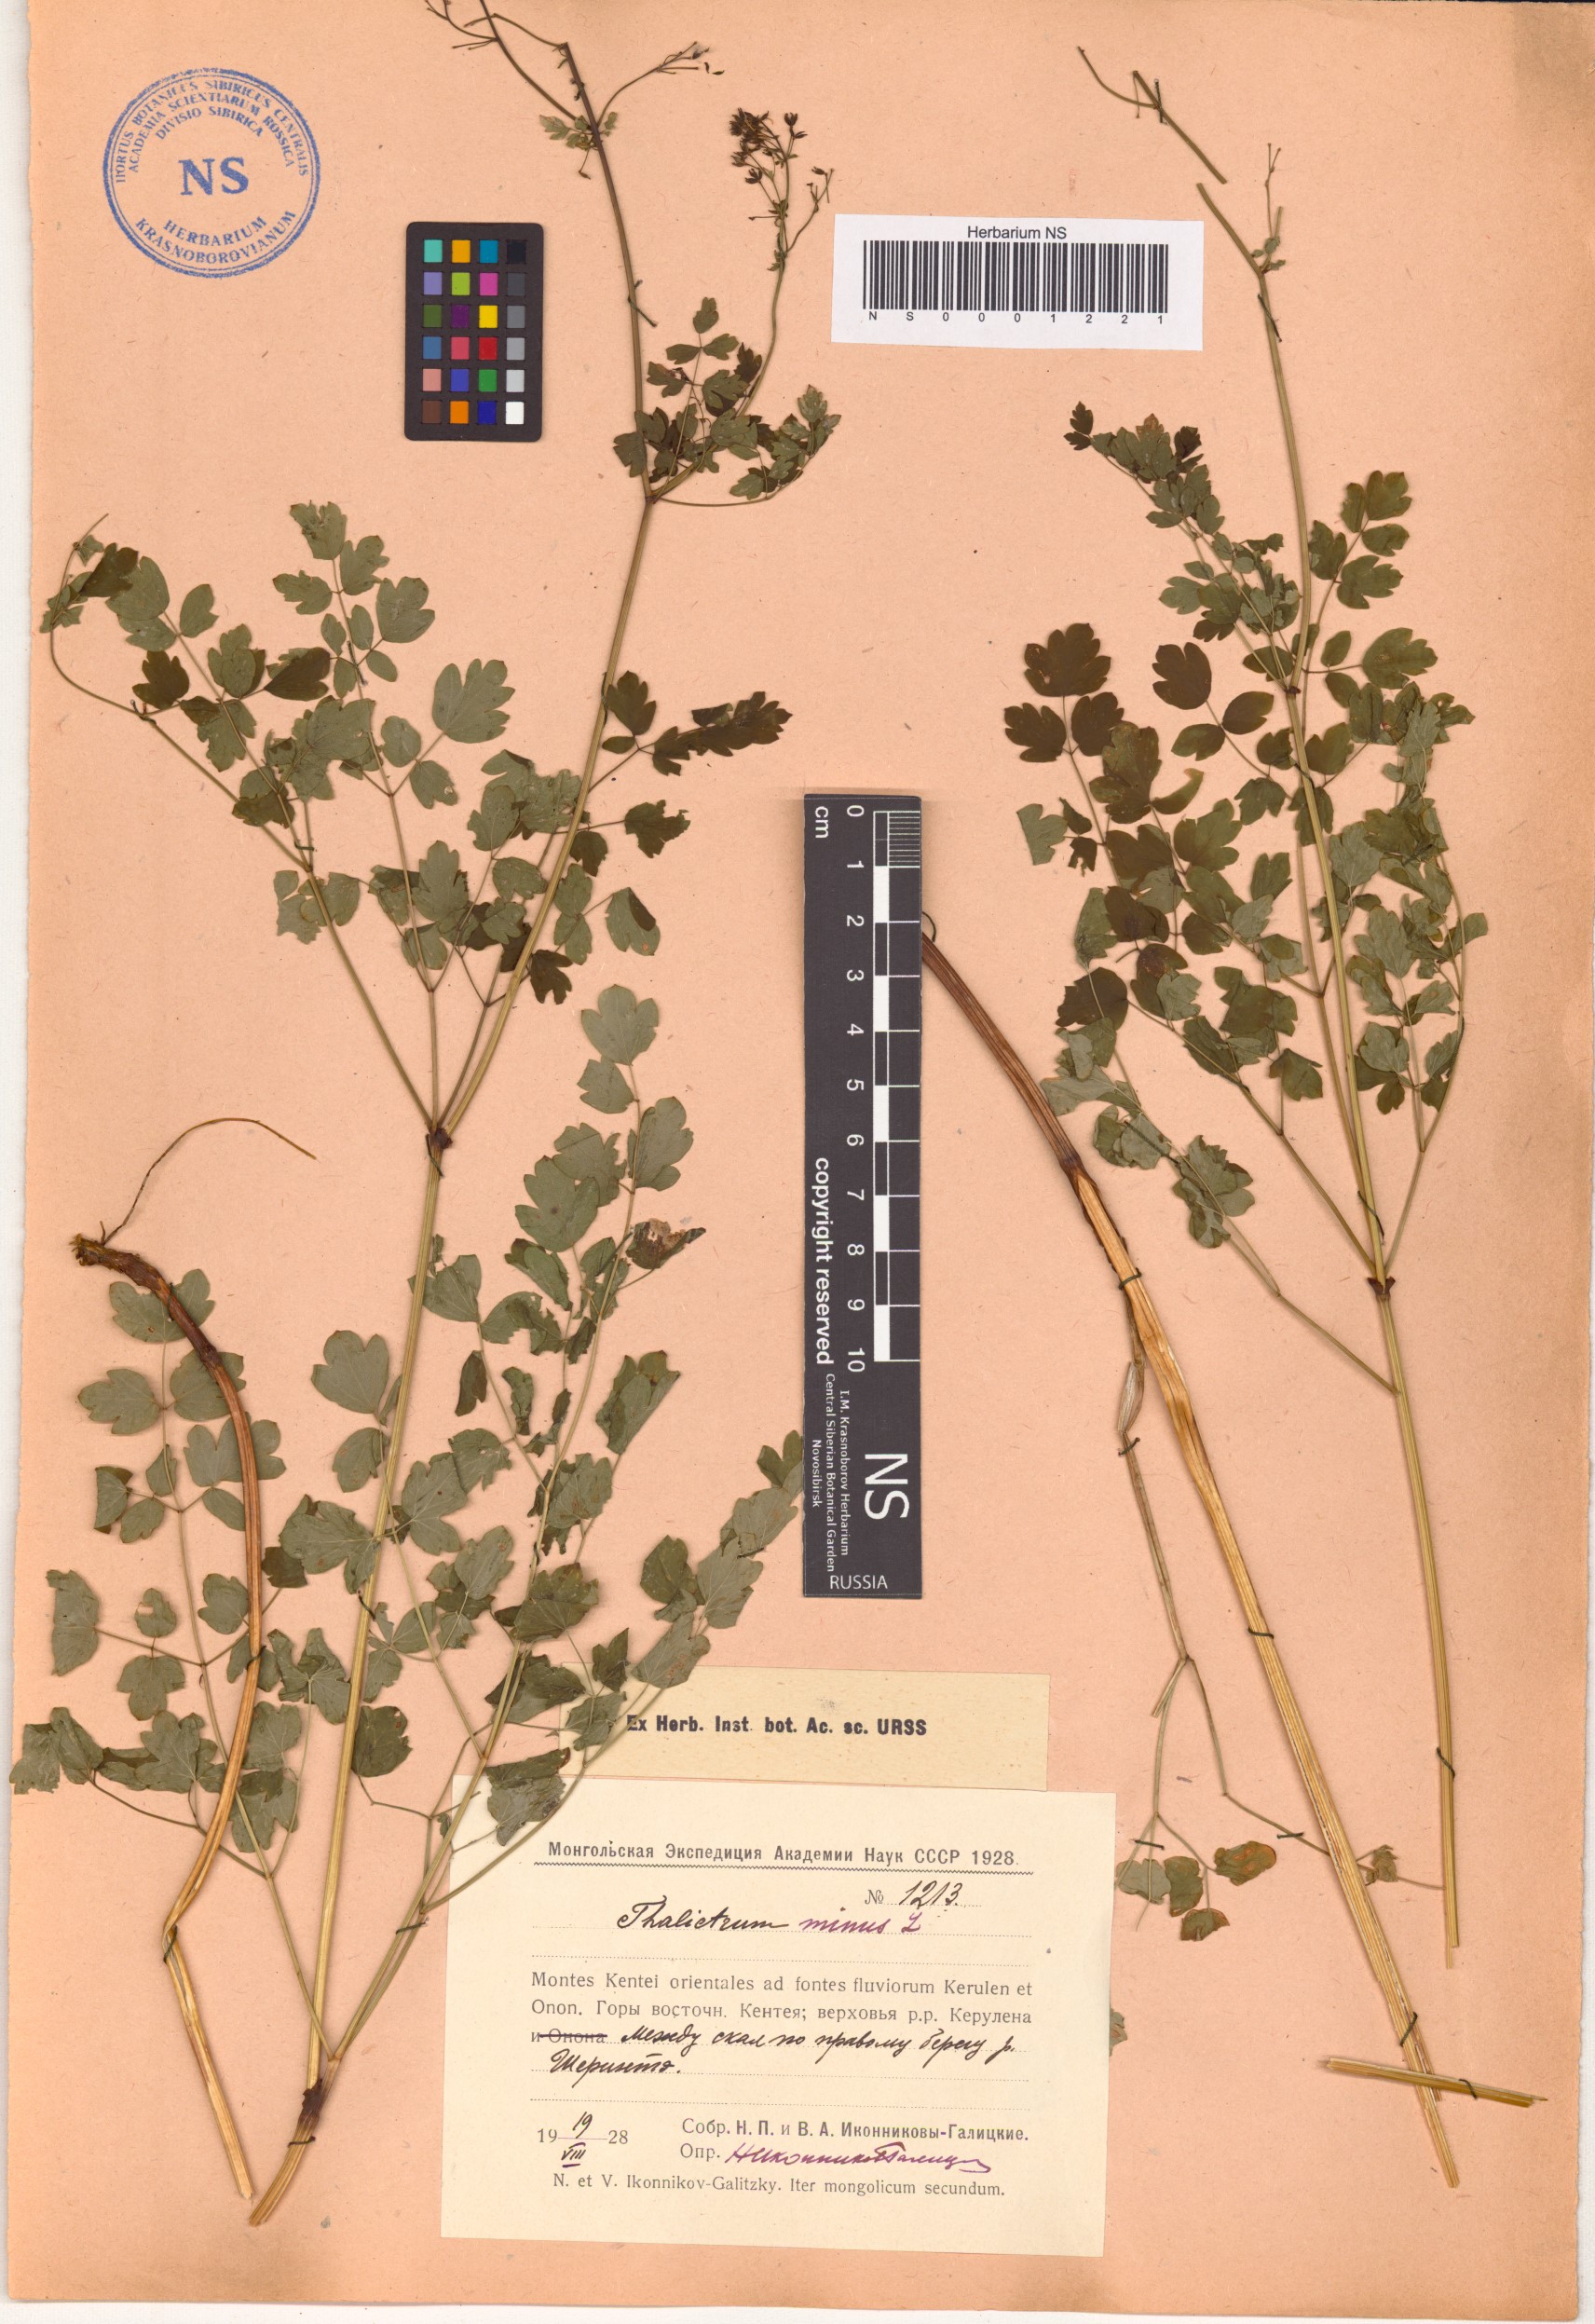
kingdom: Plantae
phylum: Tracheophyta
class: Magnoliopsida
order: Ranunculales
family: Ranunculaceae
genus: Thalictrum
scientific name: Thalictrum minus
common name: Lesser meadow-rue
